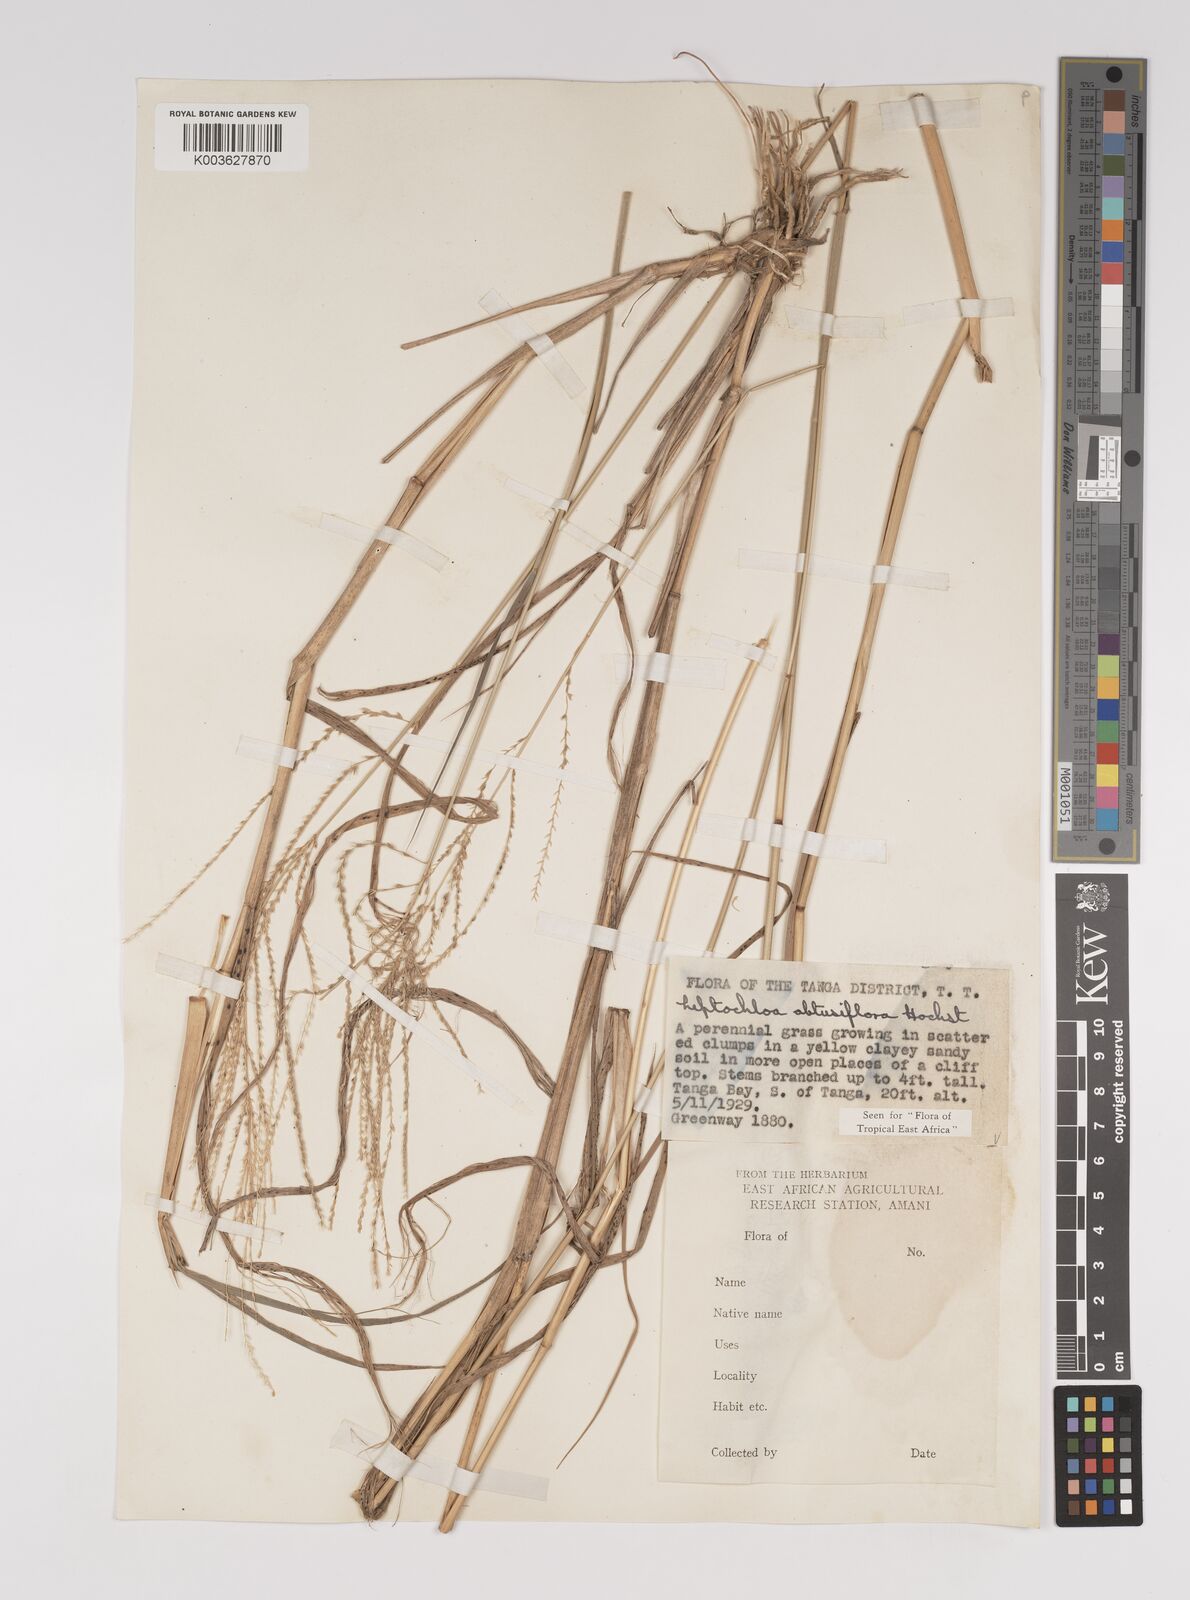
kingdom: Plantae
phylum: Tracheophyta
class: Liliopsida
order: Poales
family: Poaceae
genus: Disakisperma
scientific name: Disakisperma obtusiflorum
